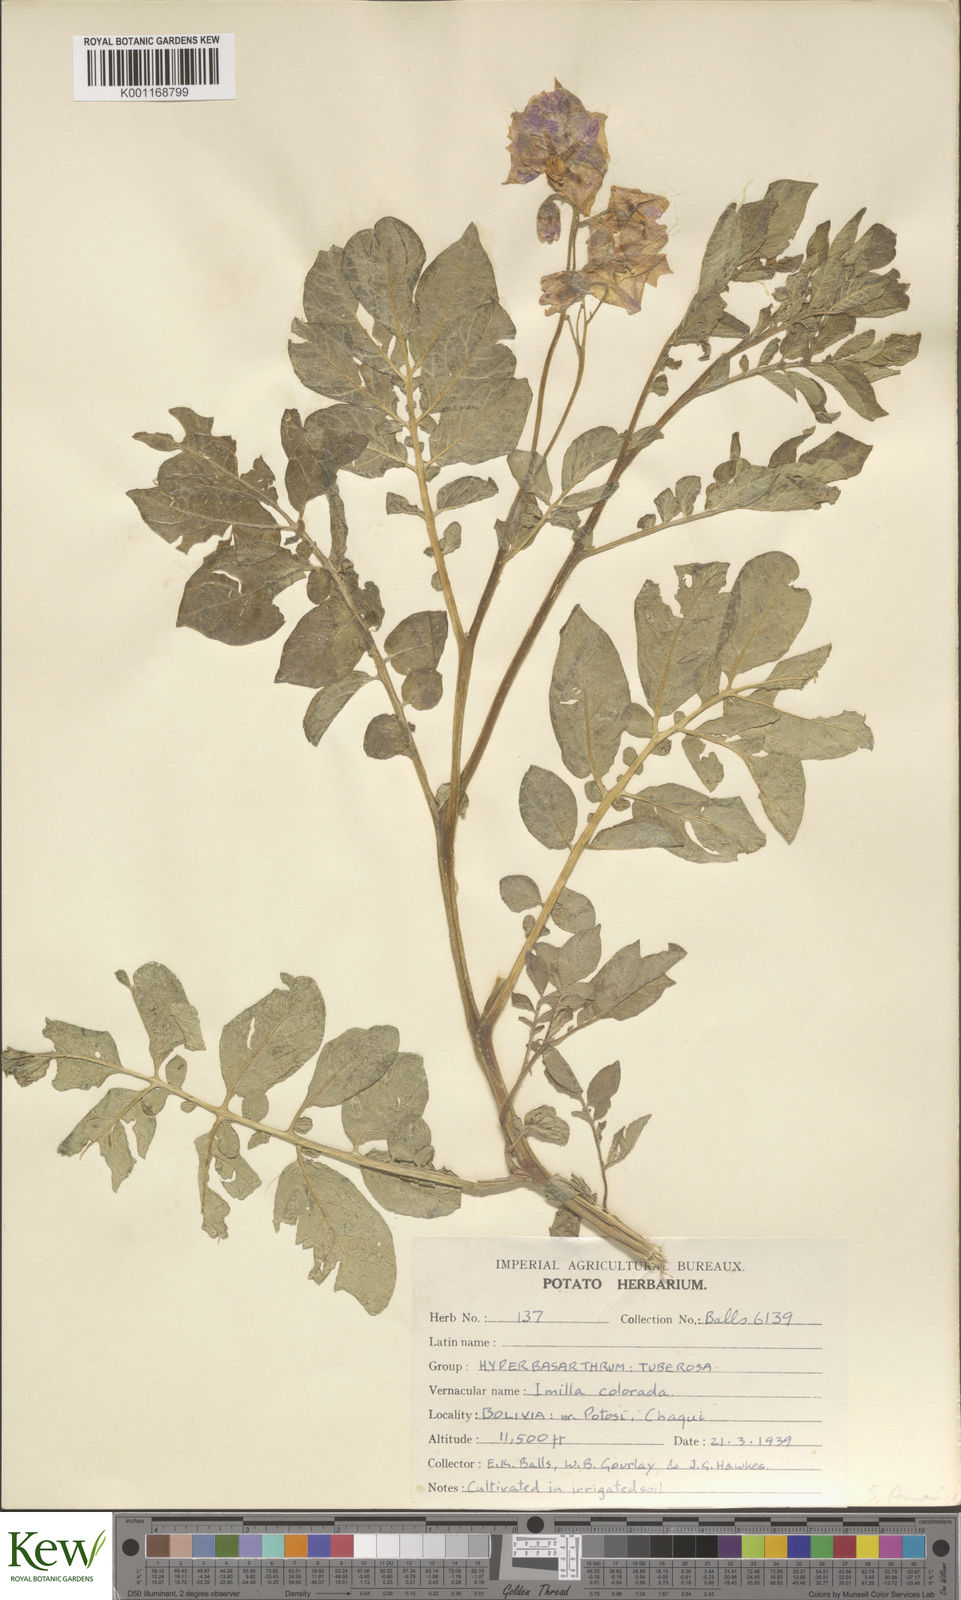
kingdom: Plantae
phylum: Tracheophyta
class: Magnoliopsida
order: Solanales
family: Solanaceae
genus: Solanum
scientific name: Solanum chaucha
